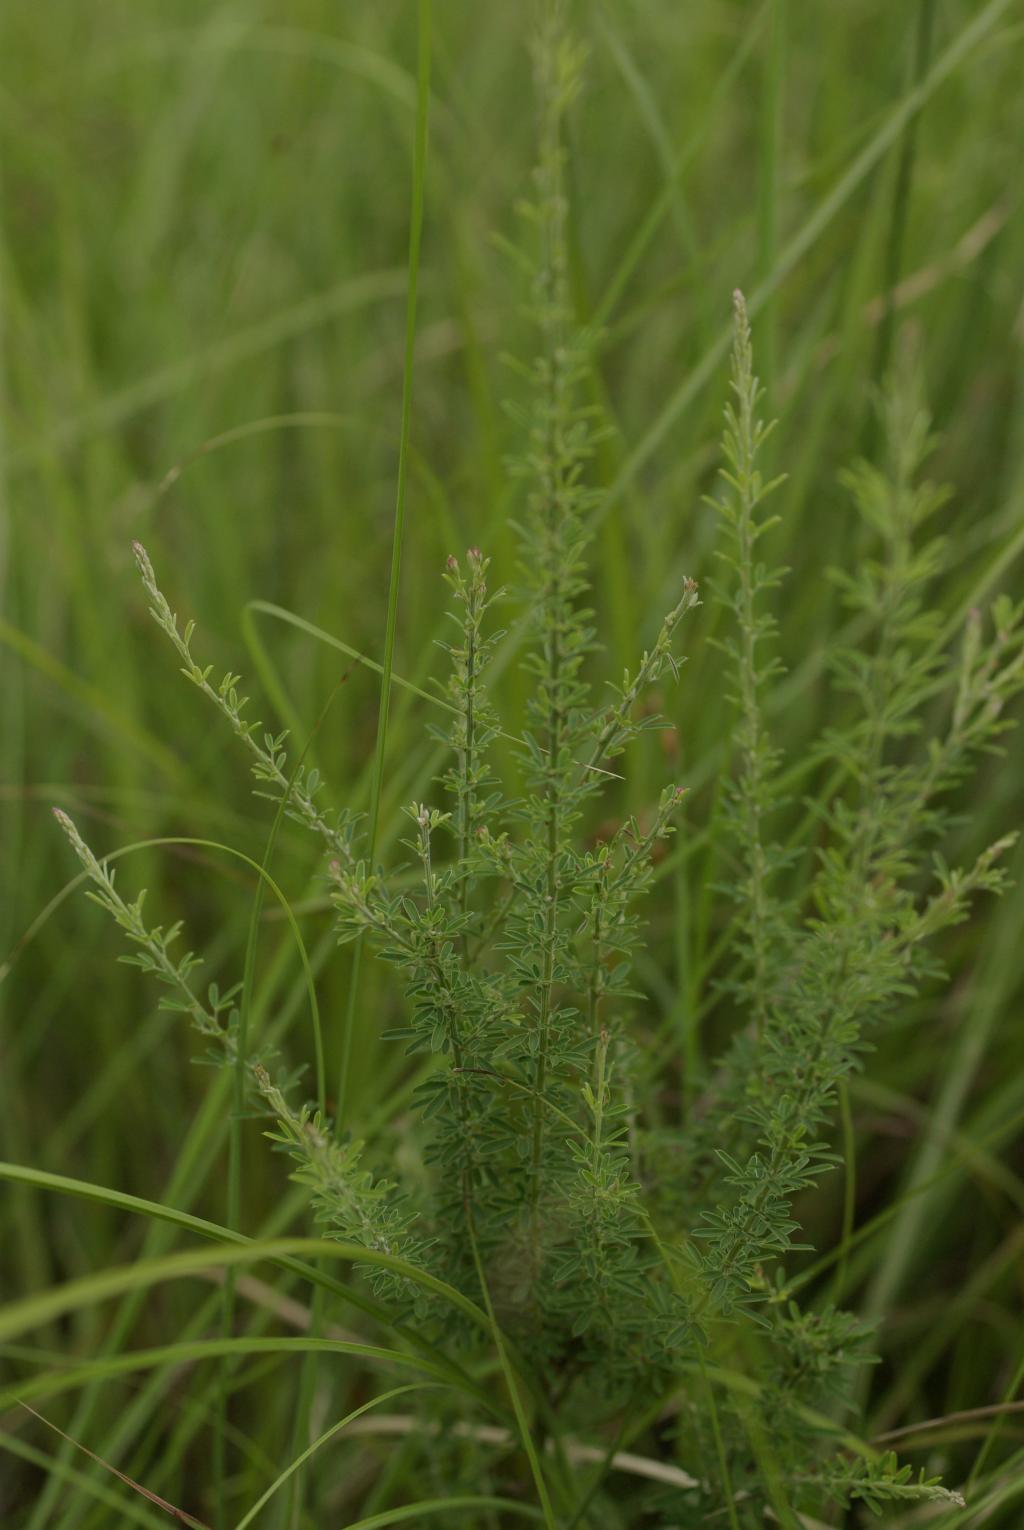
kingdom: Plantae
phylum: Tracheophyta
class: Magnoliopsida
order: Fabales
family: Fabaceae
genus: Lespedeza
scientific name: Lespedeza cuneata
